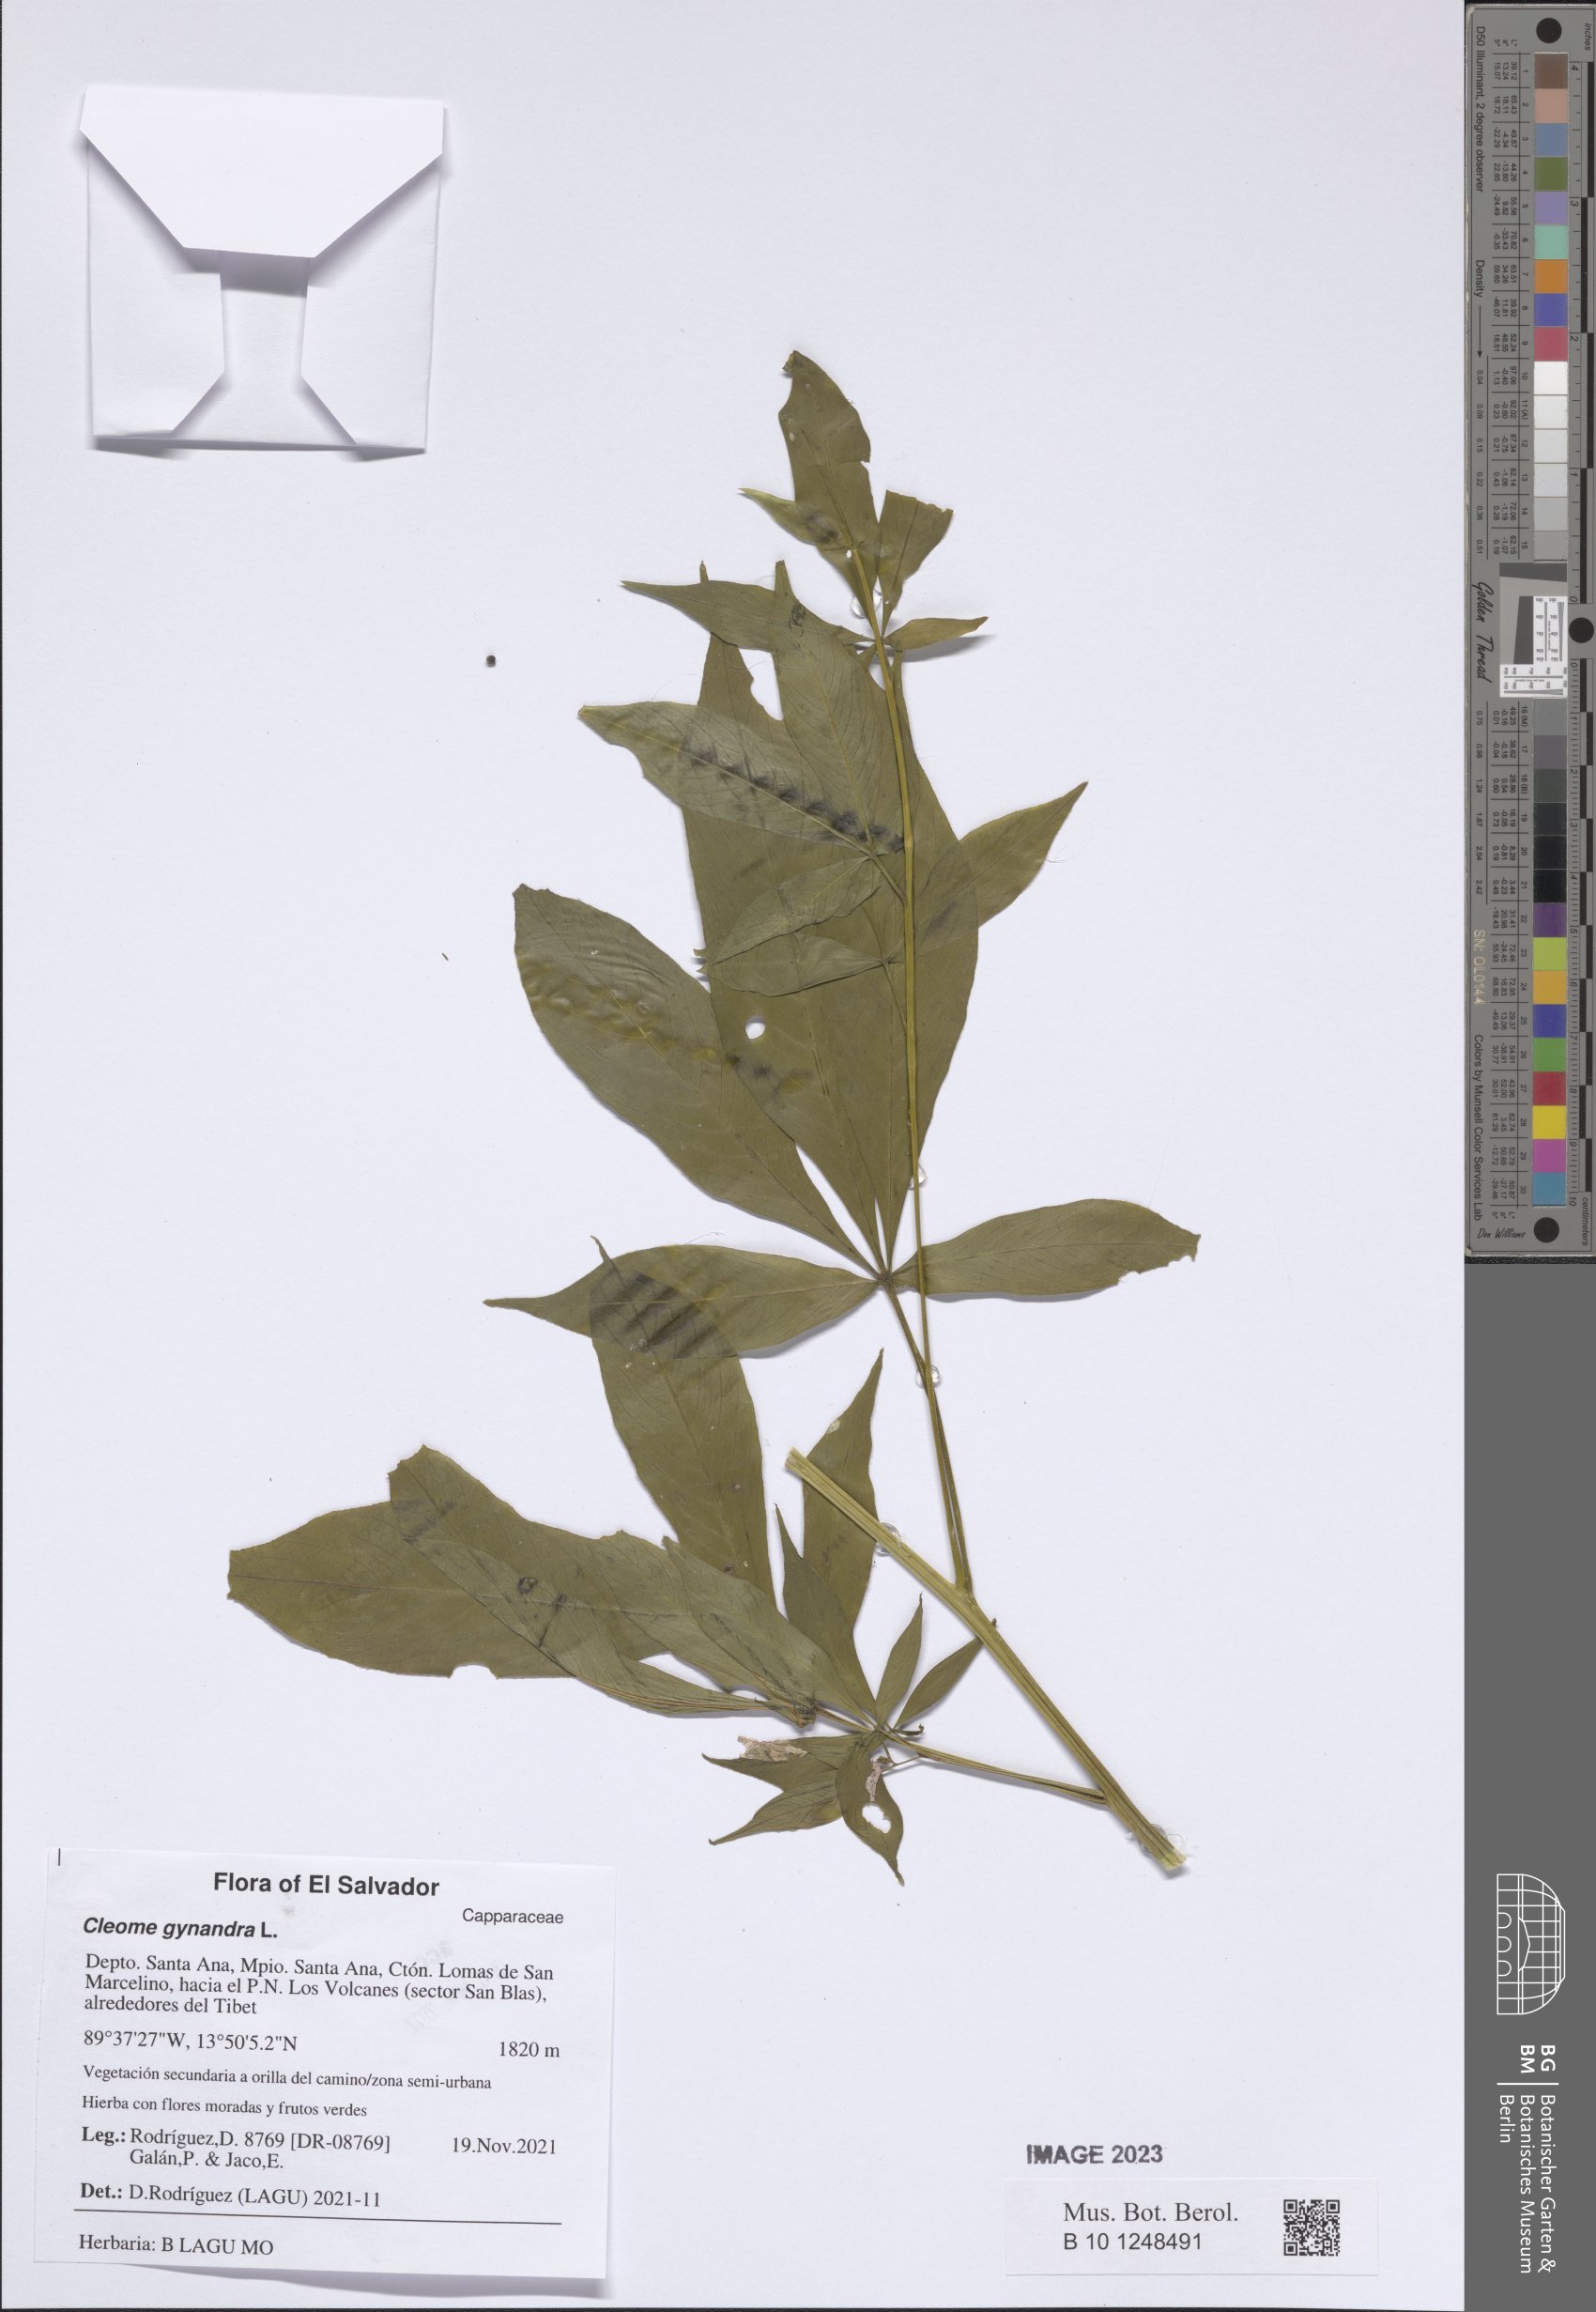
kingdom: Plantae
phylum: Tracheophyta
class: Magnoliopsida
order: Brassicales
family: Cleomaceae
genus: Gynandropsis
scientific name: Gynandropsis gynandra
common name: Spiderwisp
